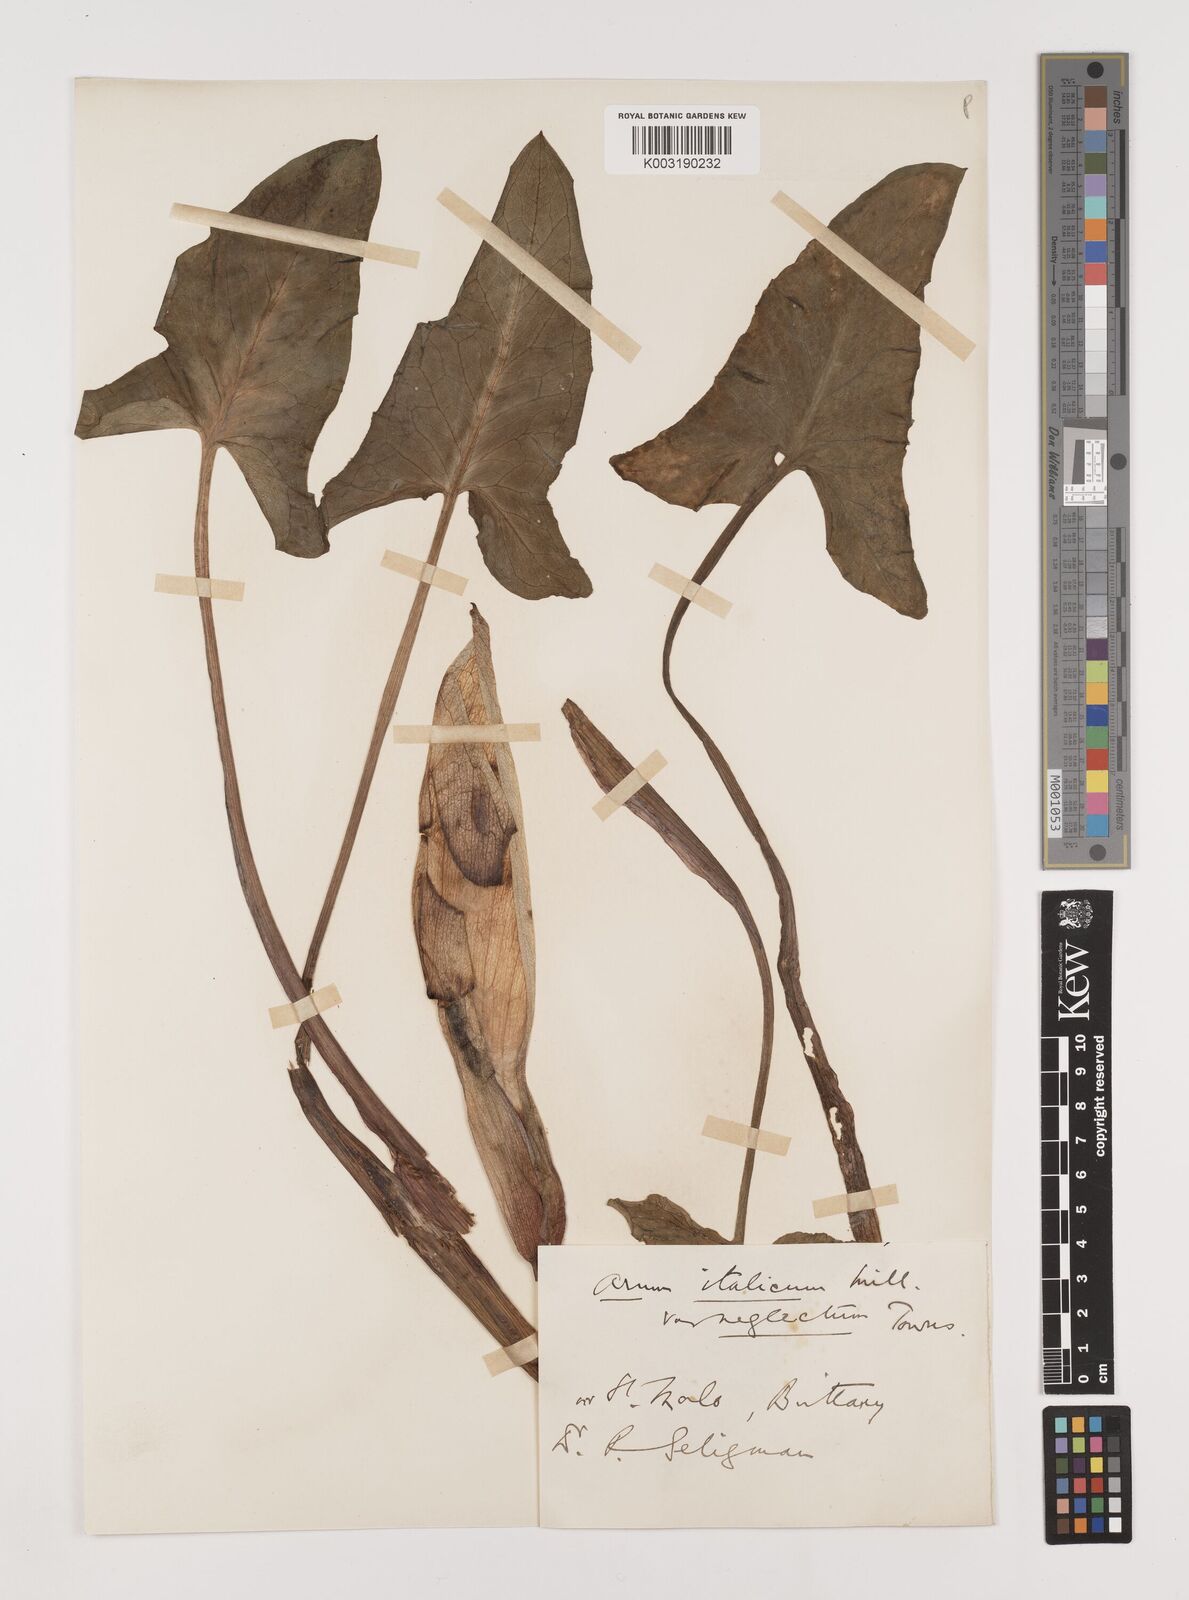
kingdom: Plantae
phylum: Tracheophyta
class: Liliopsida
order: Alismatales
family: Araceae
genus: Arum
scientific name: Arum italicum
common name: Italian lords-and-ladies
